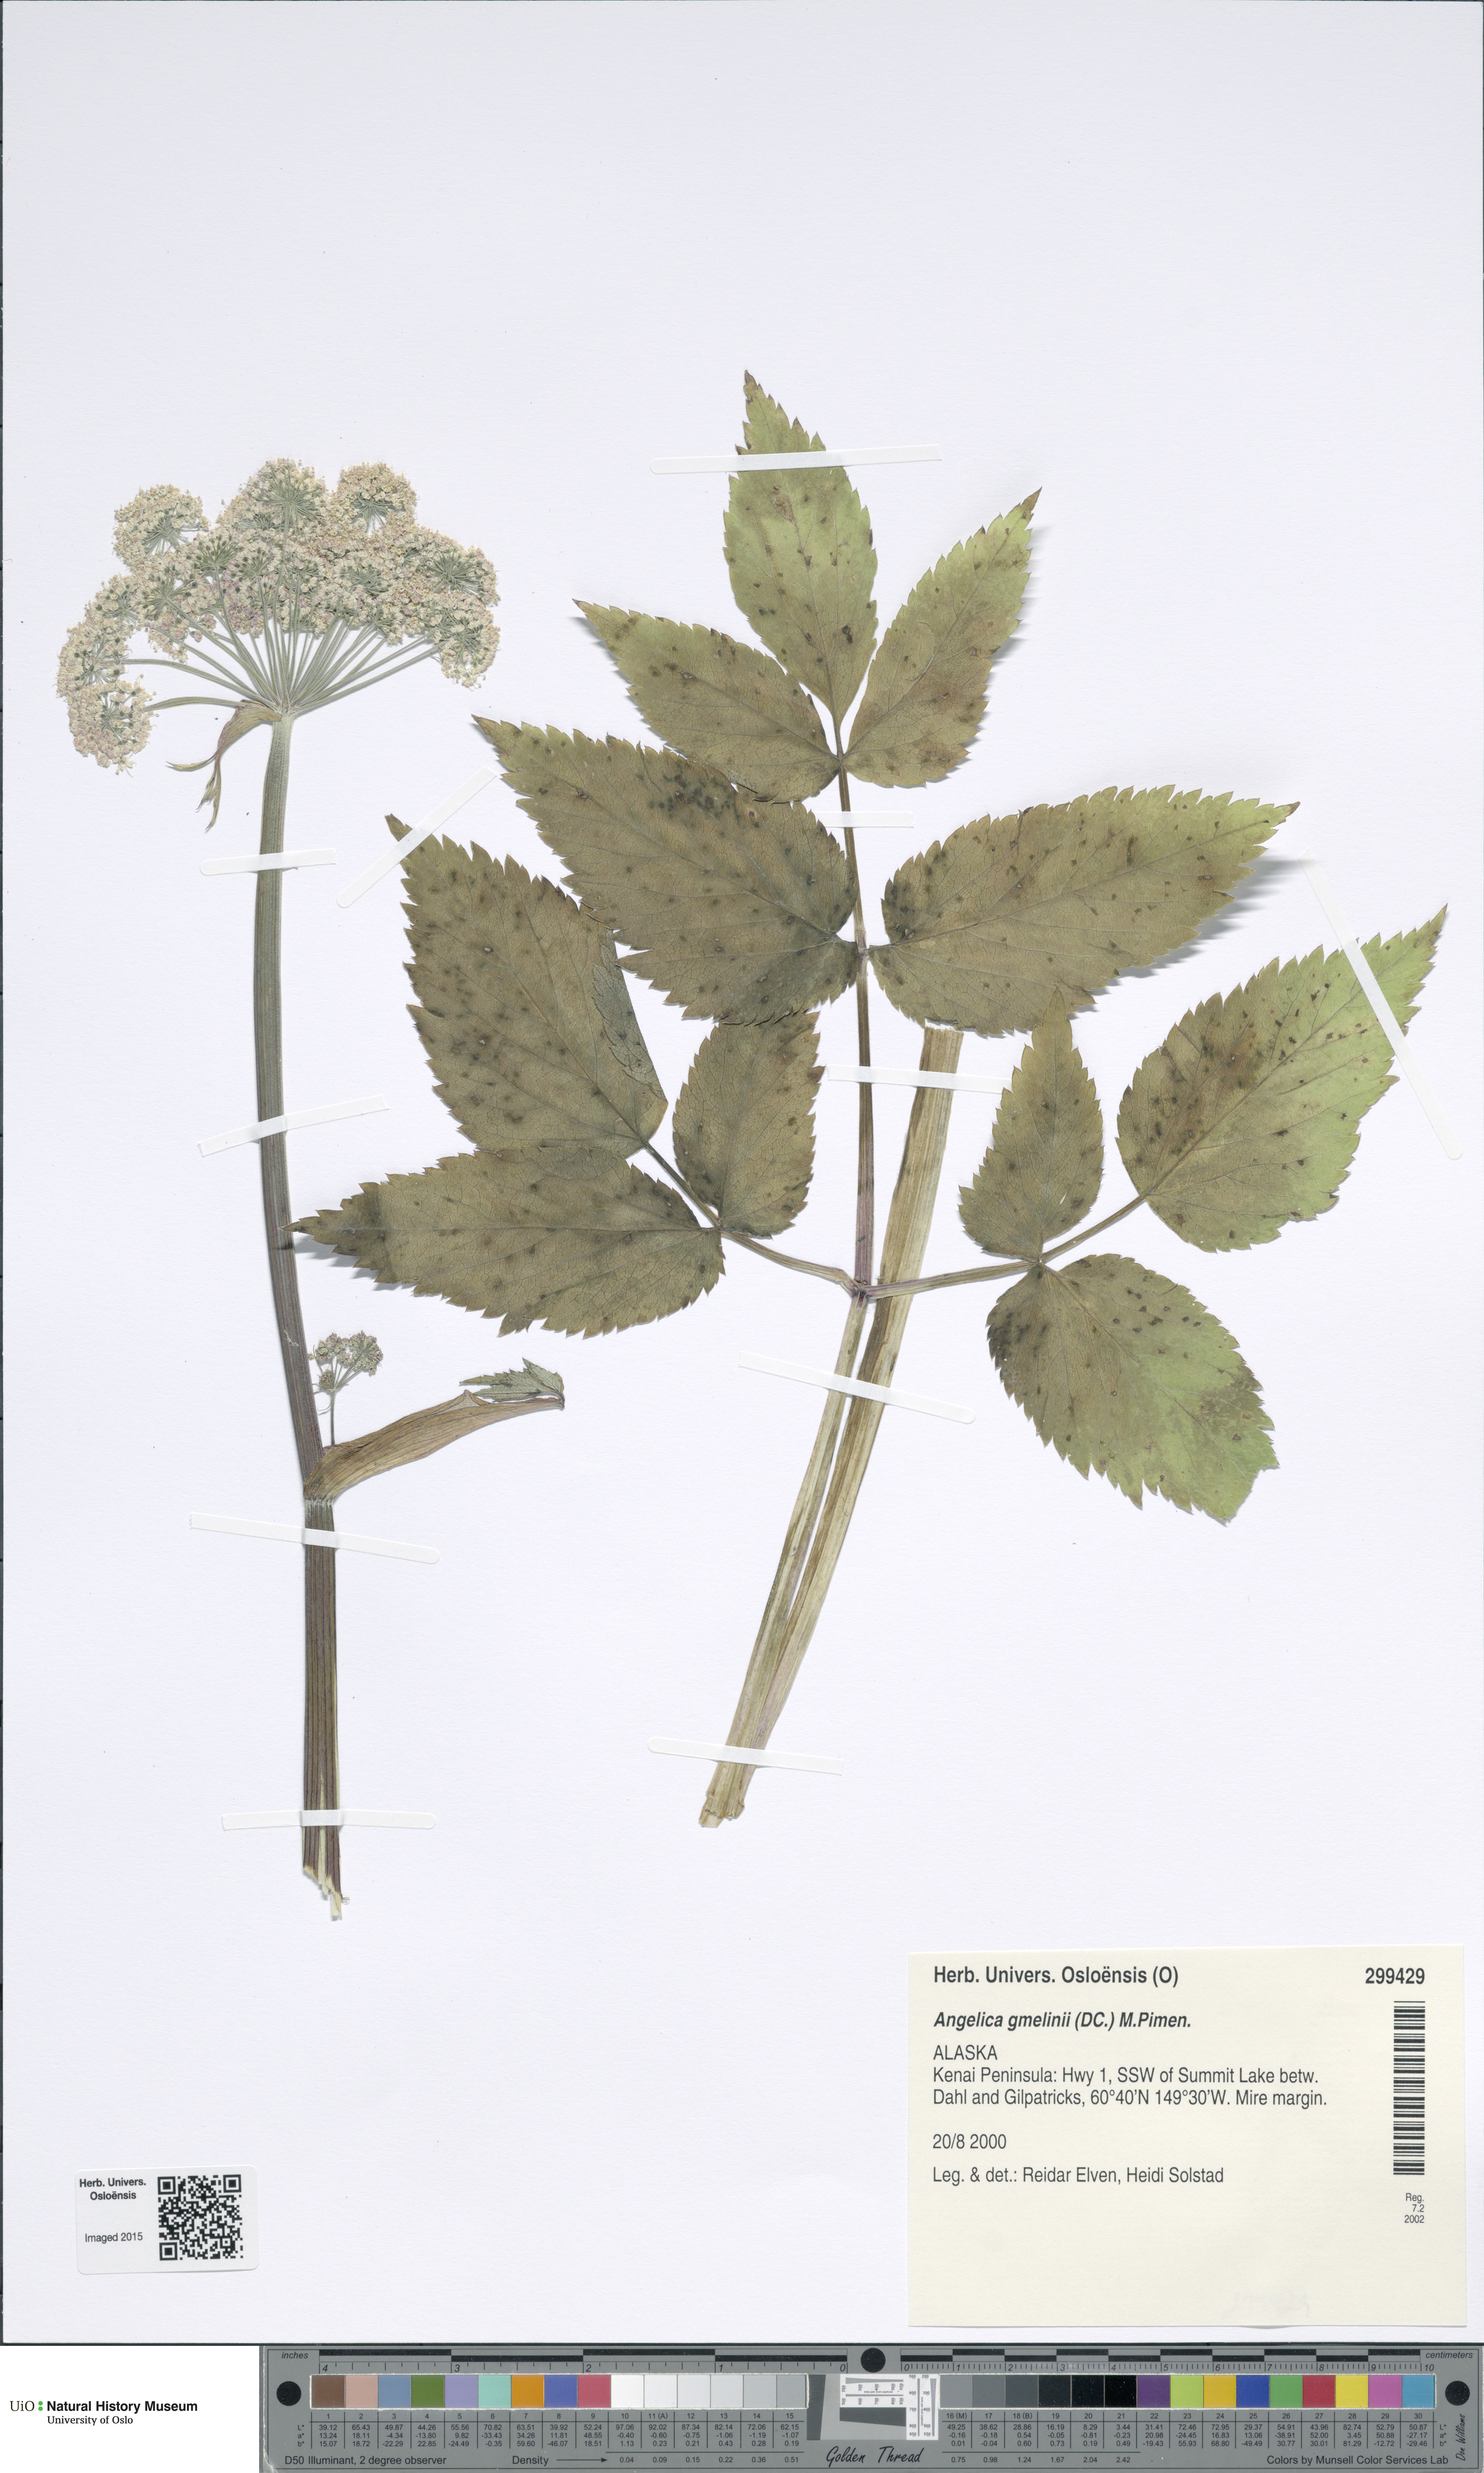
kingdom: Plantae
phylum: Tracheophyta
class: Magnoliopsida
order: Apiales
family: Apiaceae
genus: Angelica
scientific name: Angelica gmelinii
